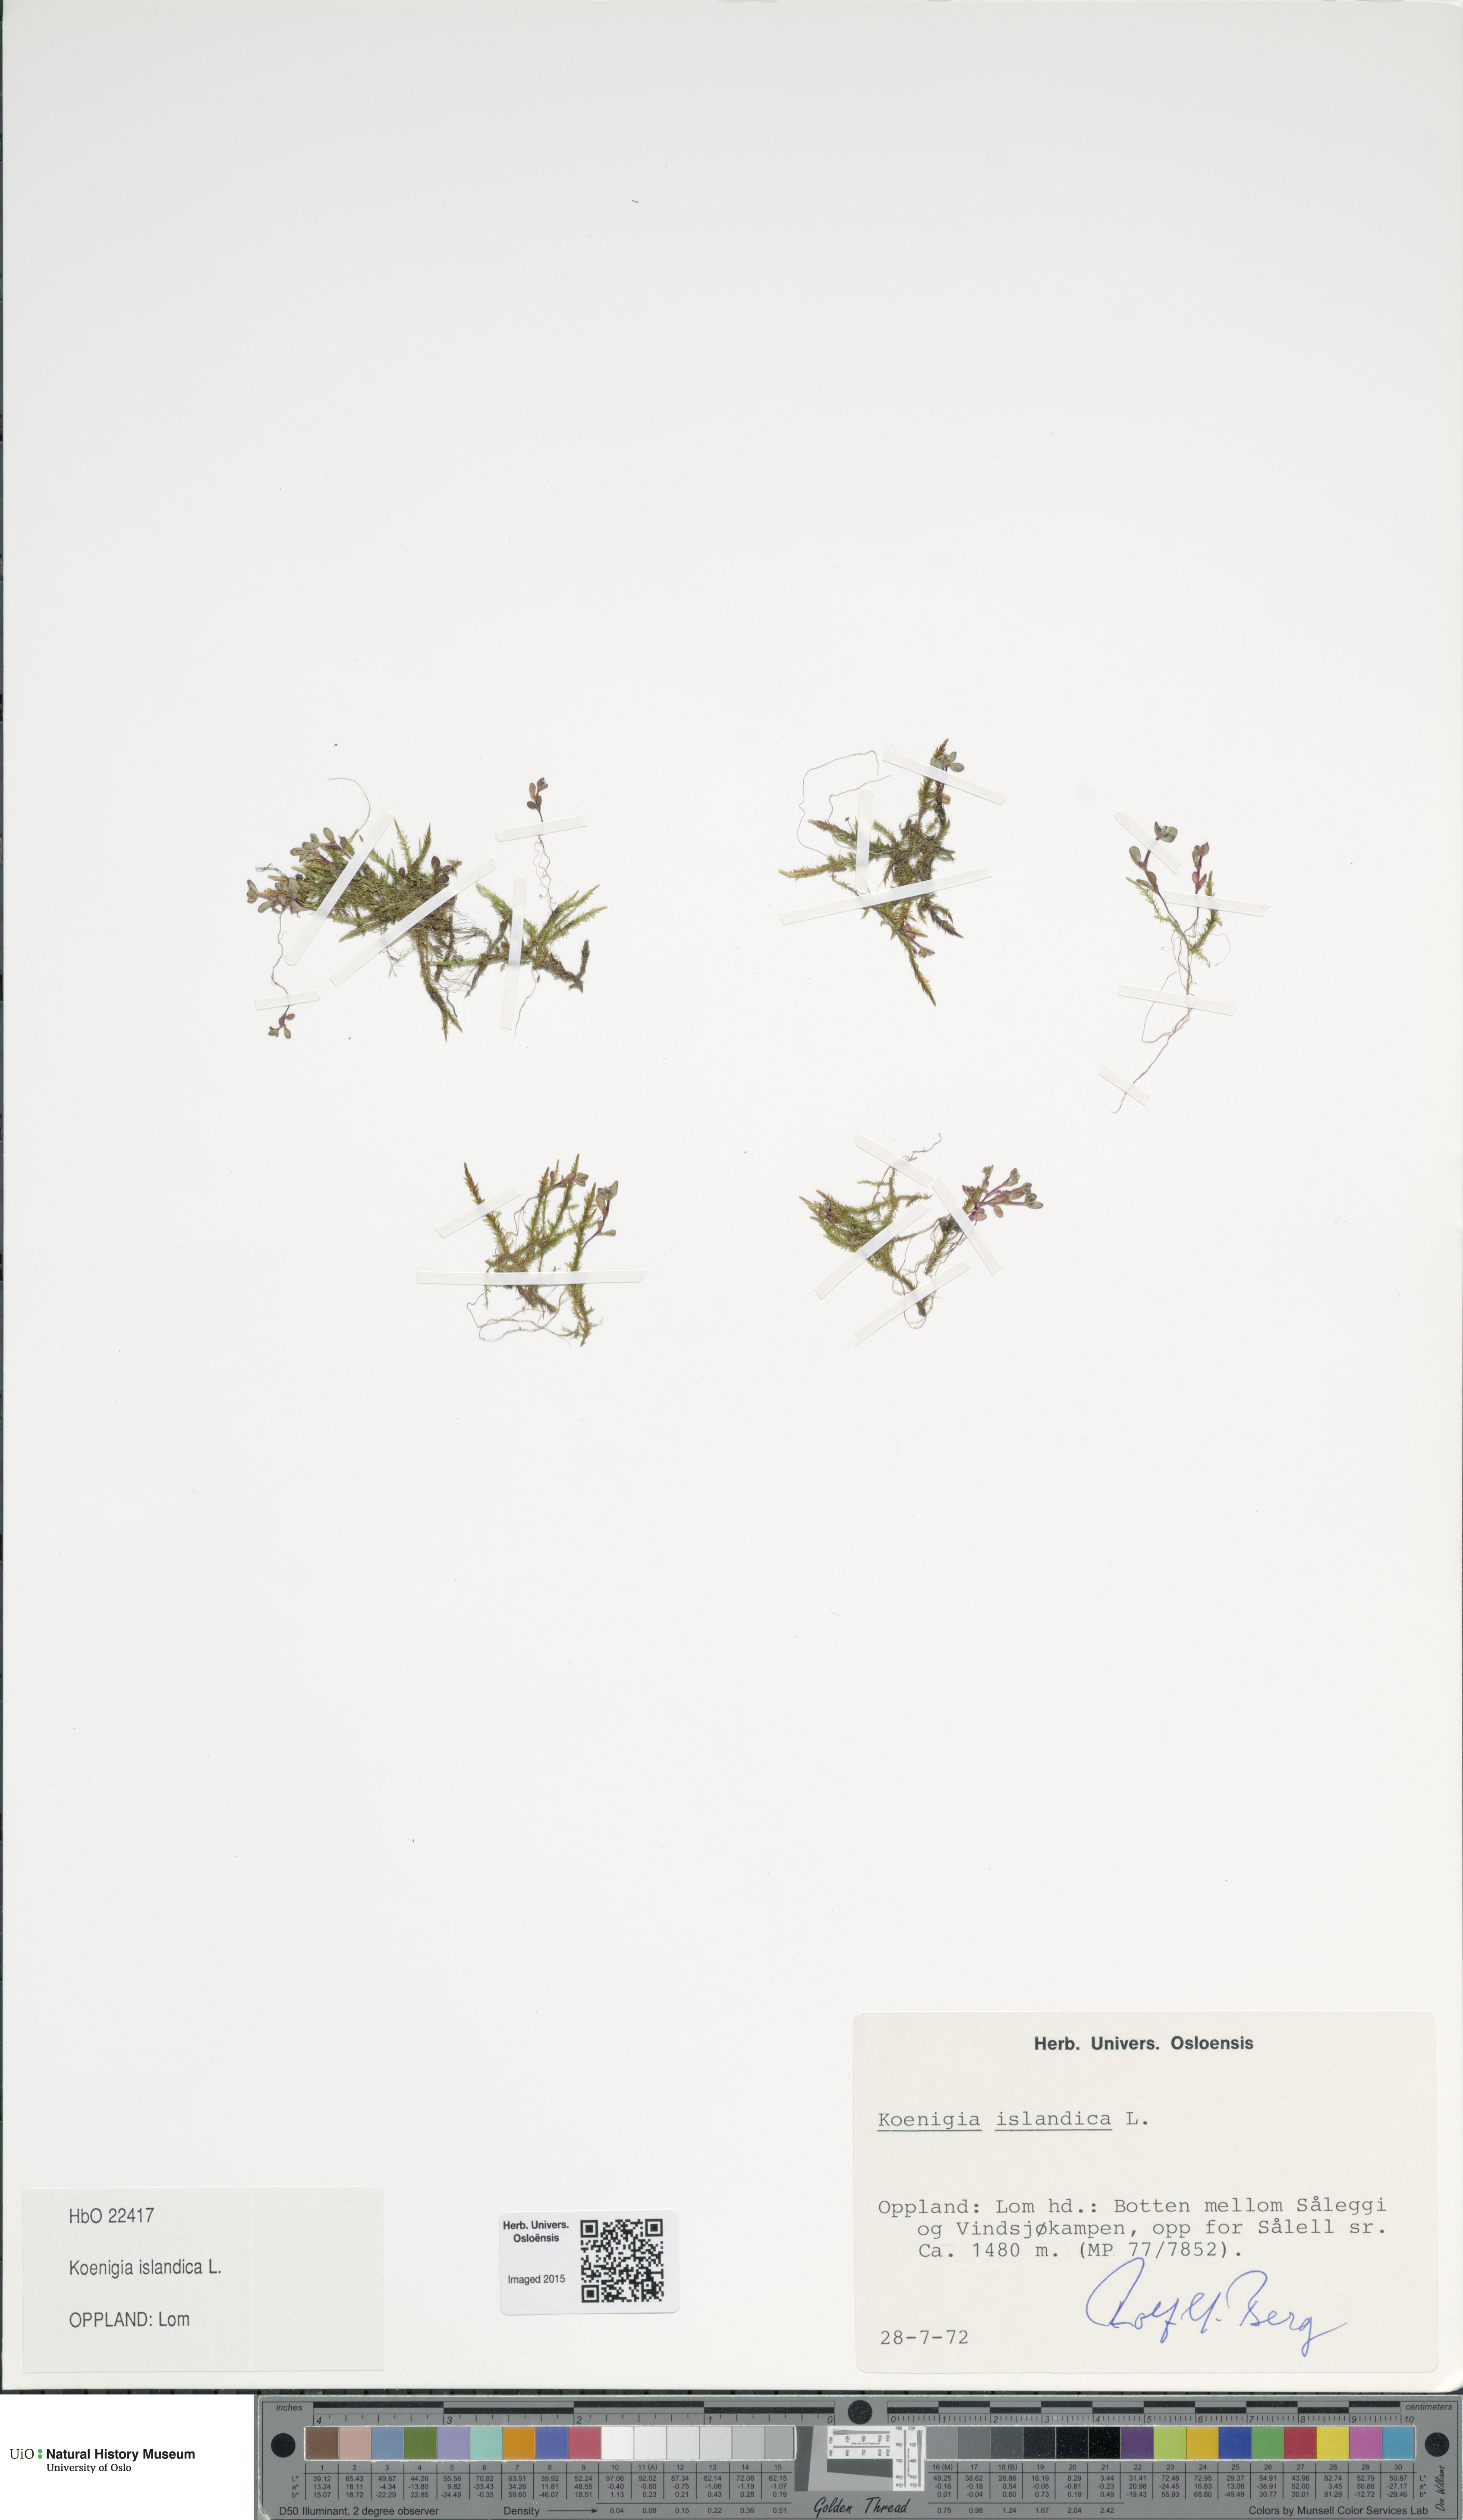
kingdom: Plantae
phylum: Tracheophyta
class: Magnoliopsida
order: Caryophyllales
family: Polygonaceae
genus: Koenigia
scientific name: Koenigia islandica
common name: Iceland-purslane
